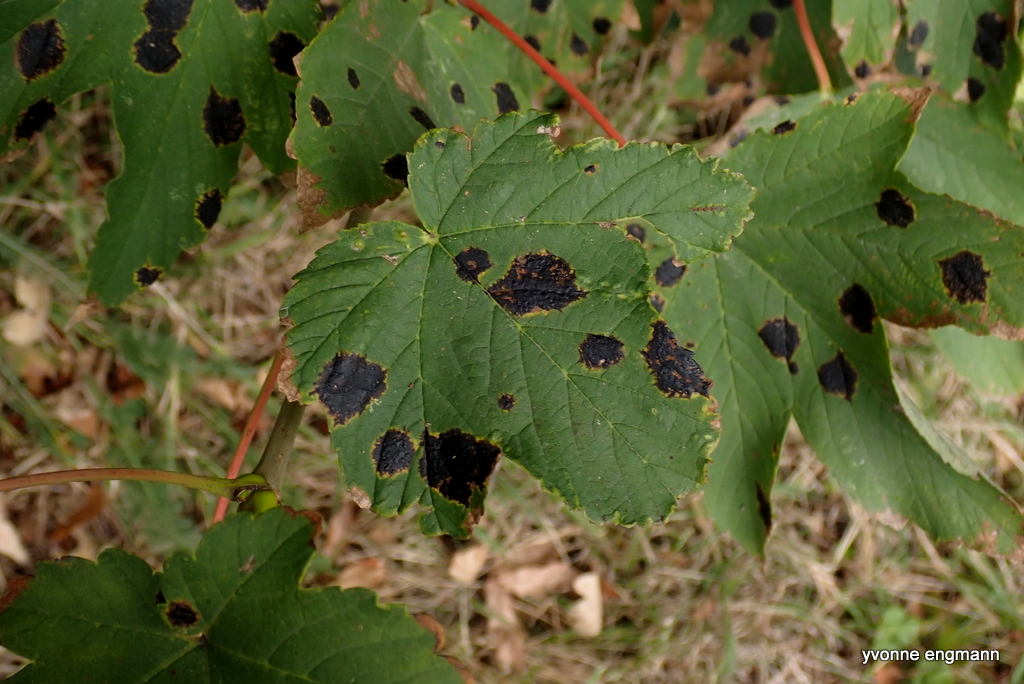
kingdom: Fungi
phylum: Ascomycota
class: Leotiomycetes
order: Rhytismatales
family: Rhytismataceae
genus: Rhytisma
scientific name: Rhytisma acerinum
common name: ahorn-rynkeplet
